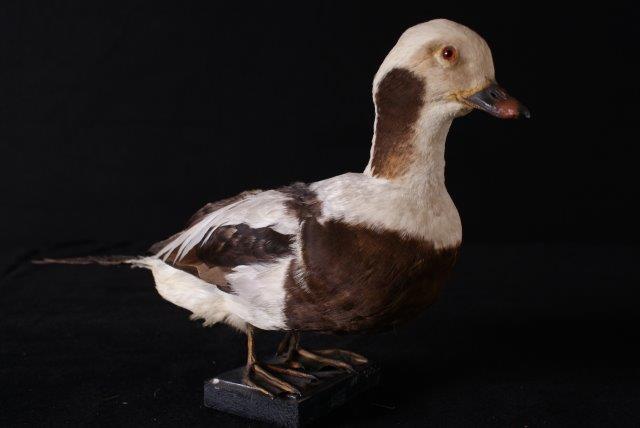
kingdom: Animalia
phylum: Chordata
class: Aves
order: Anseriformes
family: Anatidae
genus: Clangula
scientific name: Clangula hyemalis
